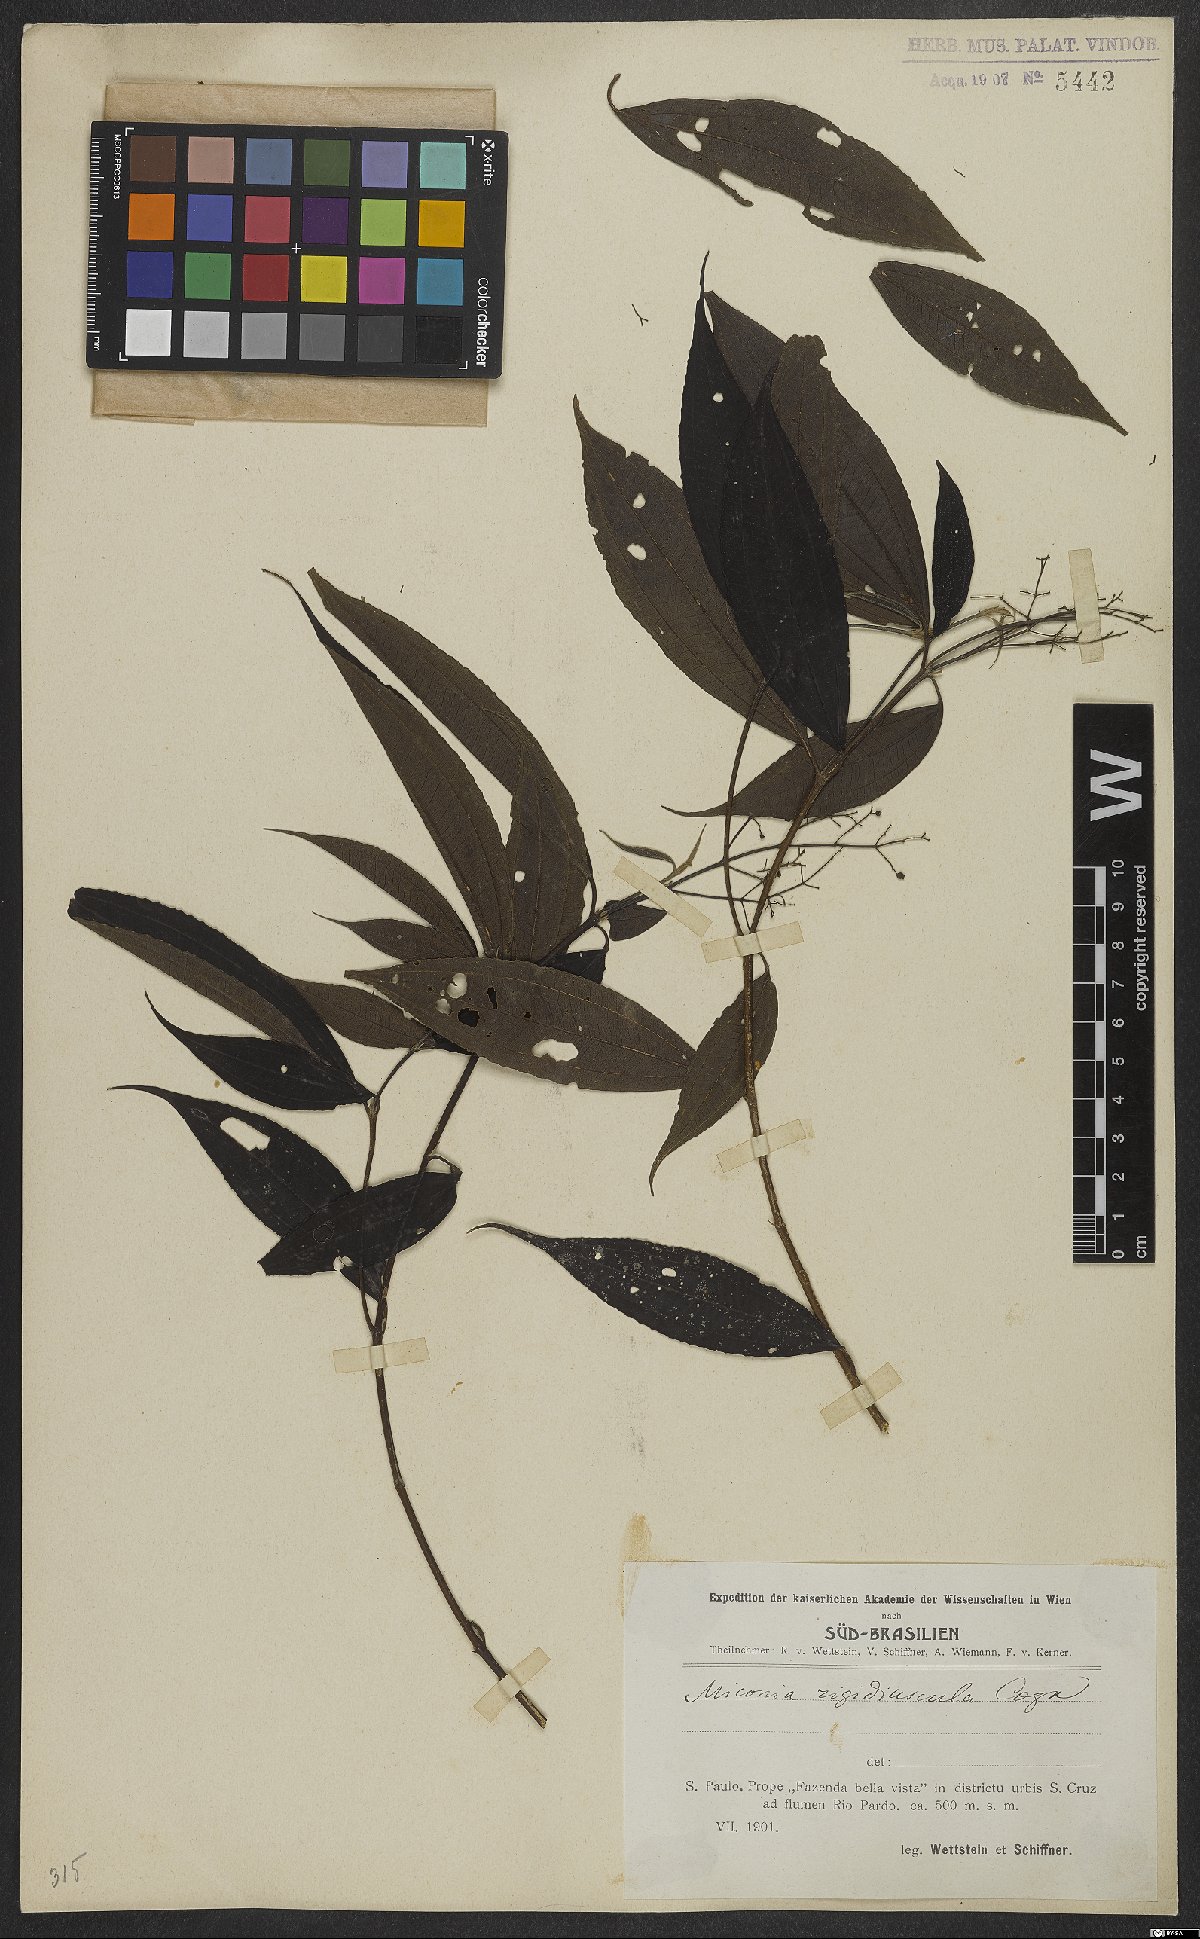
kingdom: Plantae
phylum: Tracheophyta
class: Magnoliopsida
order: Myrtales
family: Melastomataceae
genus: Miconia
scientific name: Miconia pusilliflora
